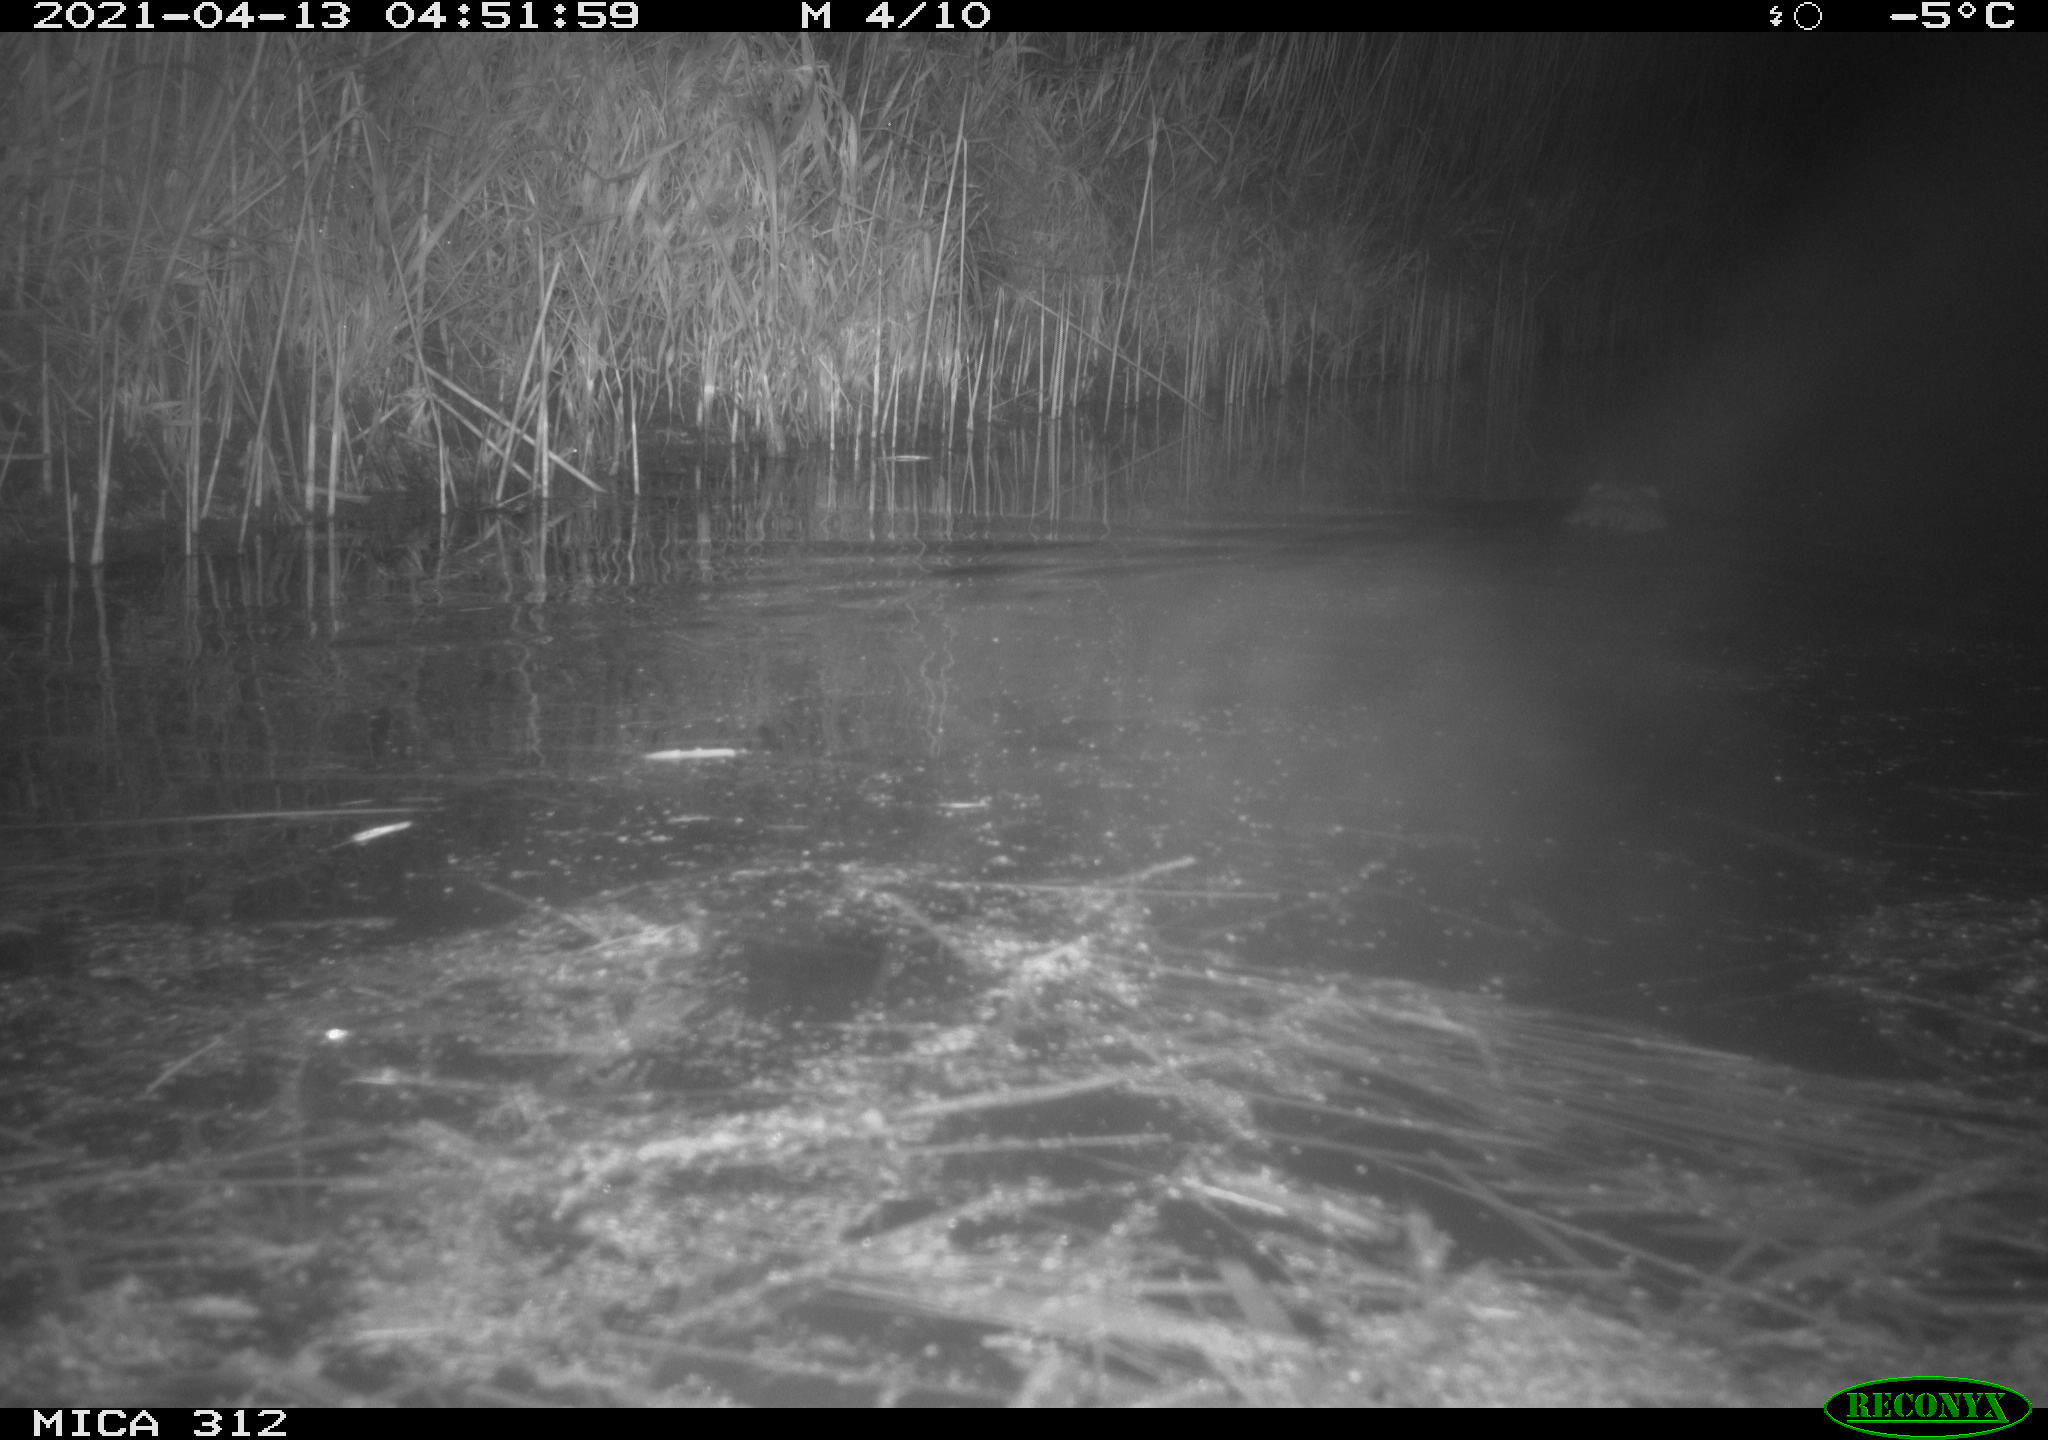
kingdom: Animalia
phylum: Chordata
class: Mammalia
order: Rodentia
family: Cricetidae
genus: Ondatra
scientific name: Ondatra zibethicus
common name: Muskrat
